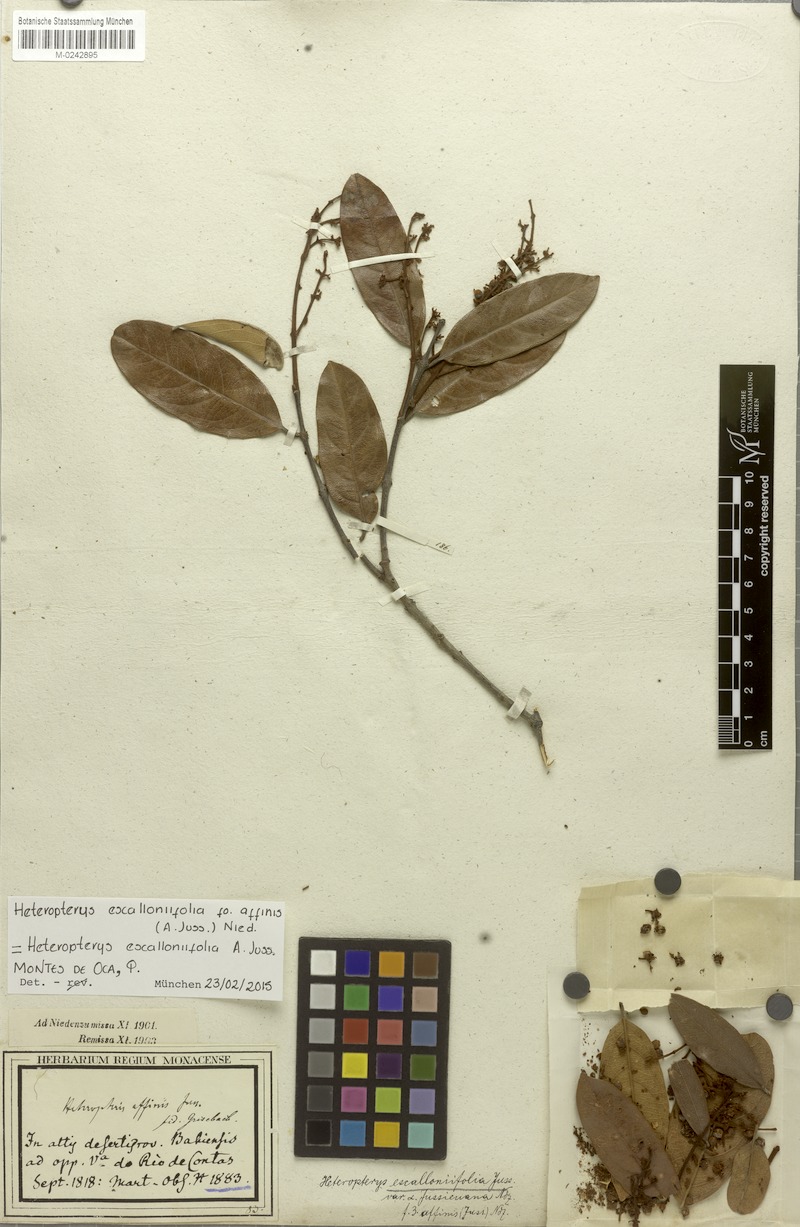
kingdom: Plantae
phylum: Tracheophyta
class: Magnoliopsida
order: Malpighiales
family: Malpighiaceae
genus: Heteropterys
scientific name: Heteropterys escalloniifolia
